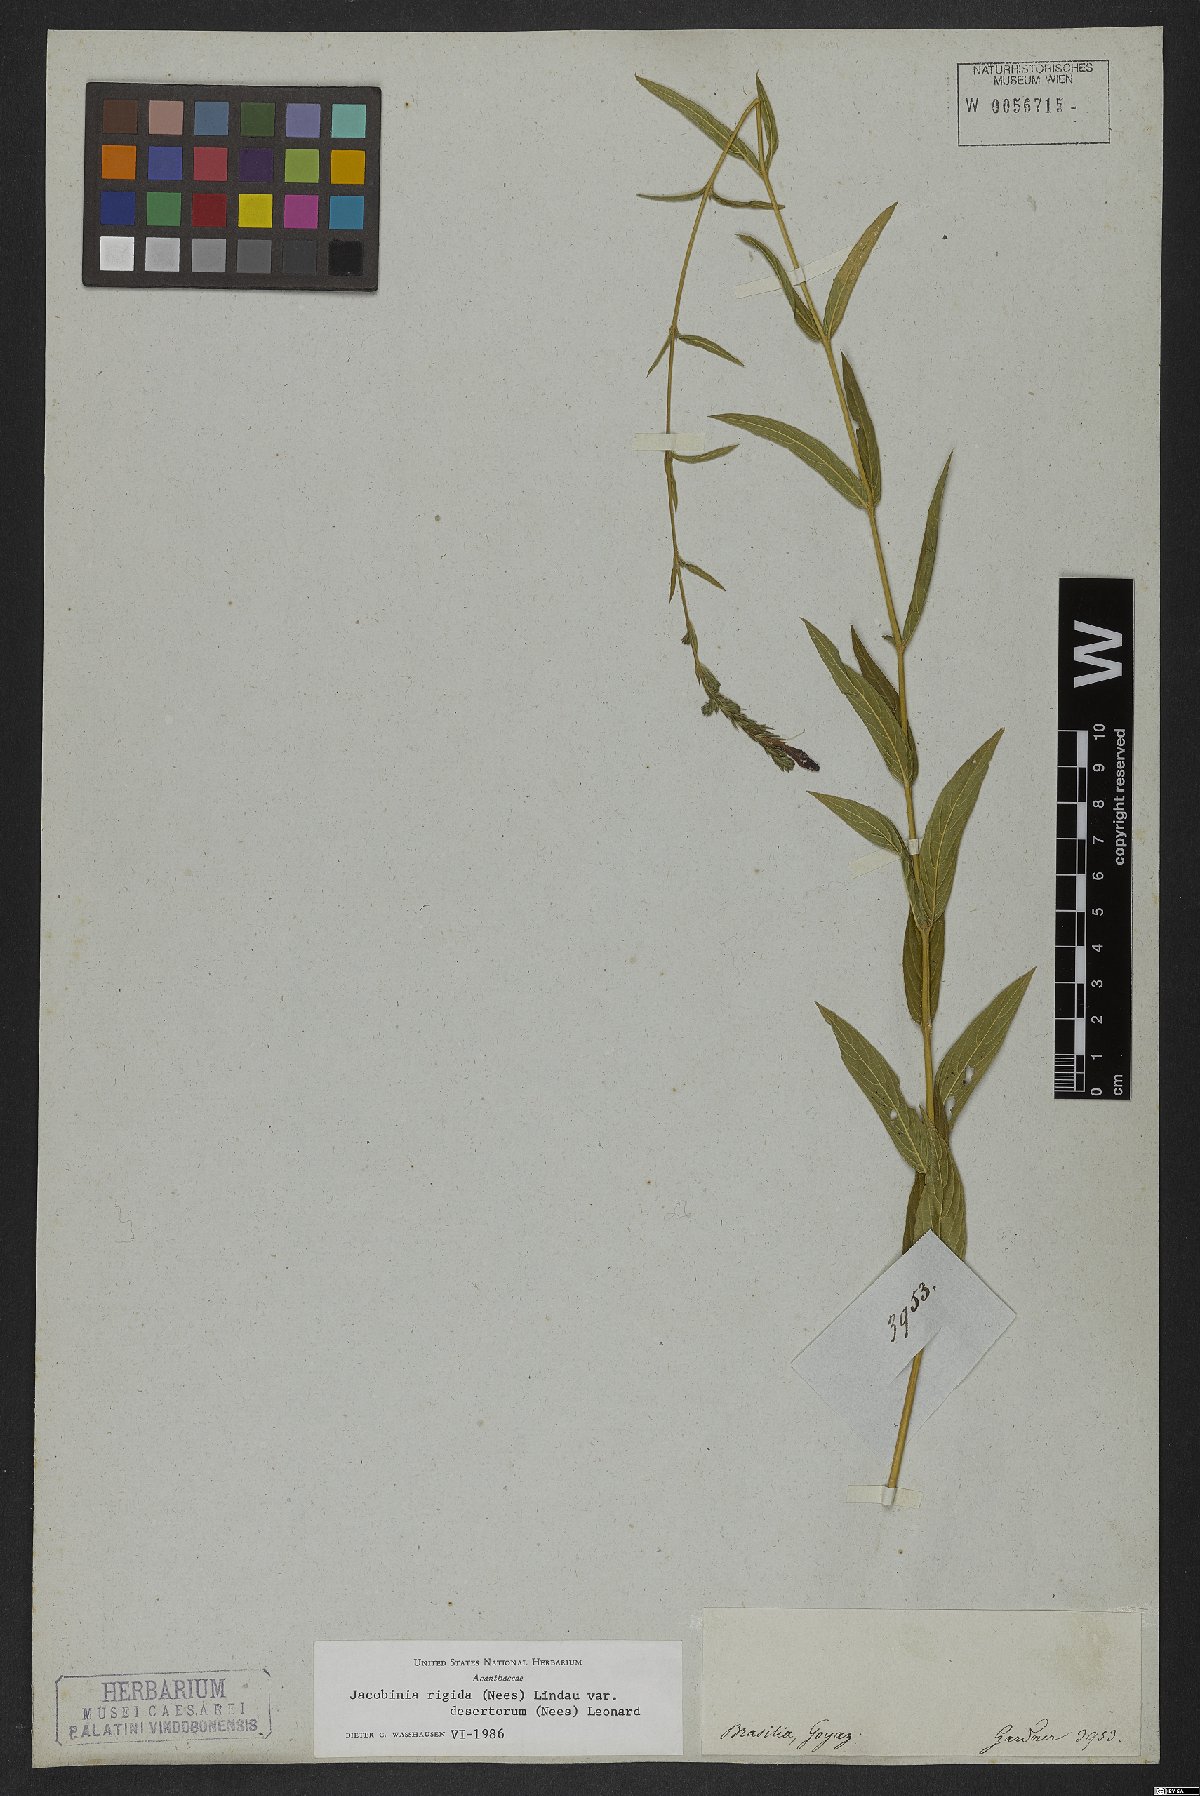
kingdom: Plantae
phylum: Tracheophyta
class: Magnoliopsida
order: Lamiales
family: Acanthaceae
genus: Justicia
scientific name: Justicia rigida
